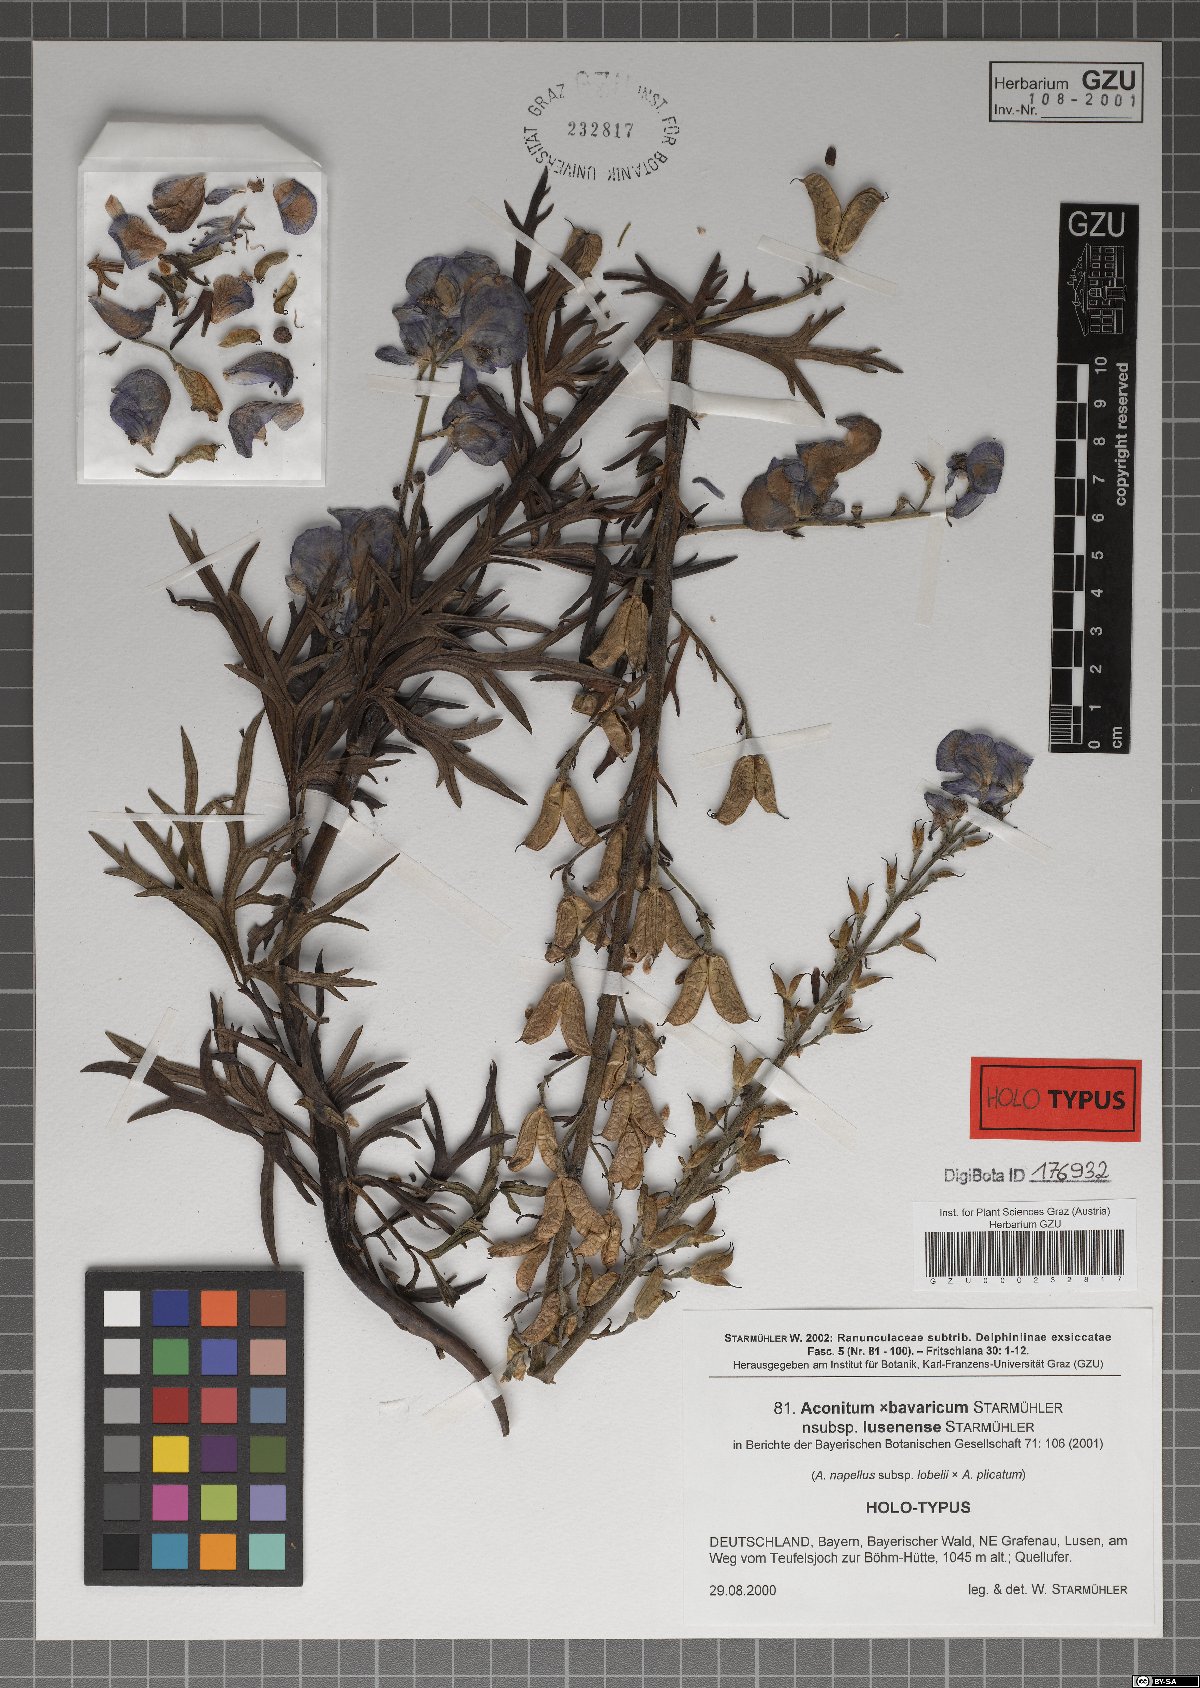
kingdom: Plantae
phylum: Tracheophyta
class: Magnoliopsida
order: Ranunculales
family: Ranunculaceae
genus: Aconitum
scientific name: Aconitum bavaricum
